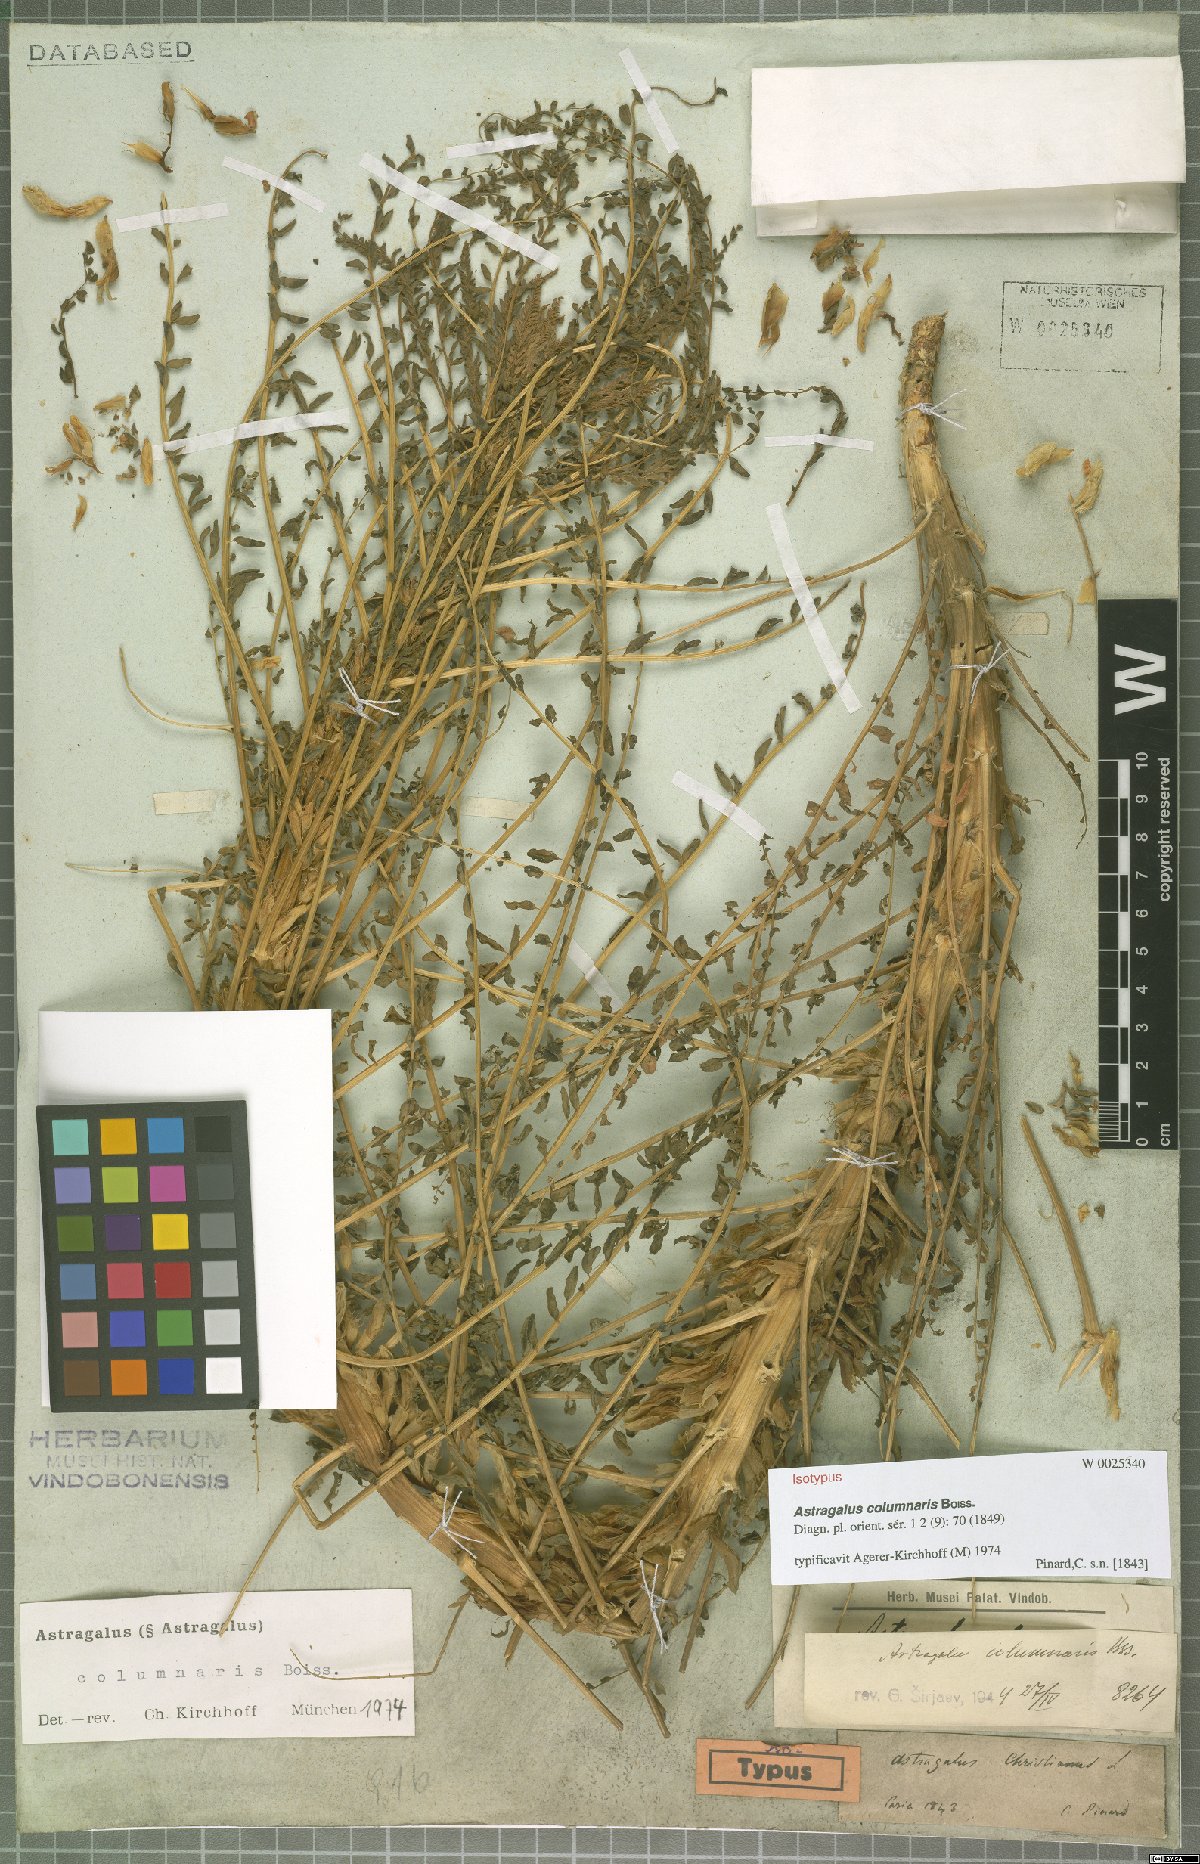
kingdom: Plantae
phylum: Tracheophyta
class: Magnoliopsida
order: Fabales
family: Fabaceae
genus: Astragalus
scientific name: Astragalus columnaris
